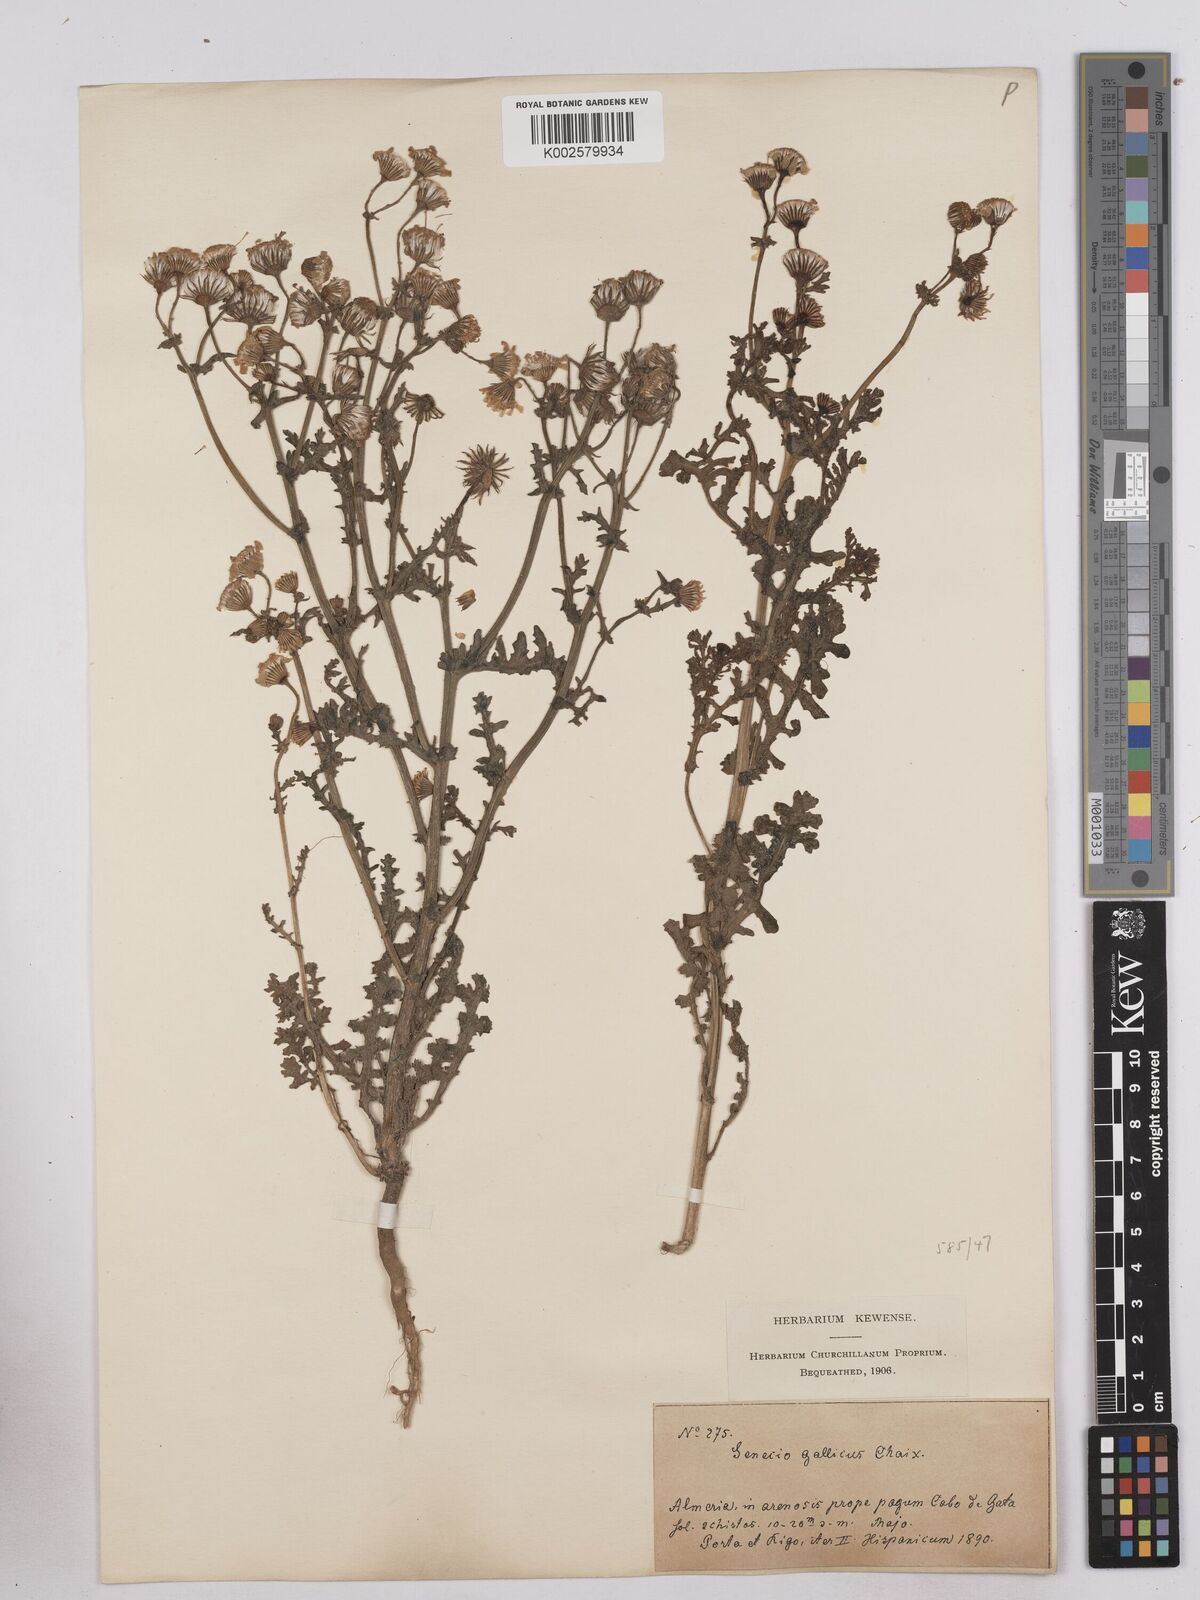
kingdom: Plantae
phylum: Tracheophyta
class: Magnoliopsida
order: Asterales
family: Asteraceae
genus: Senecio
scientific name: Senecio gallicus
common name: French groundsel
